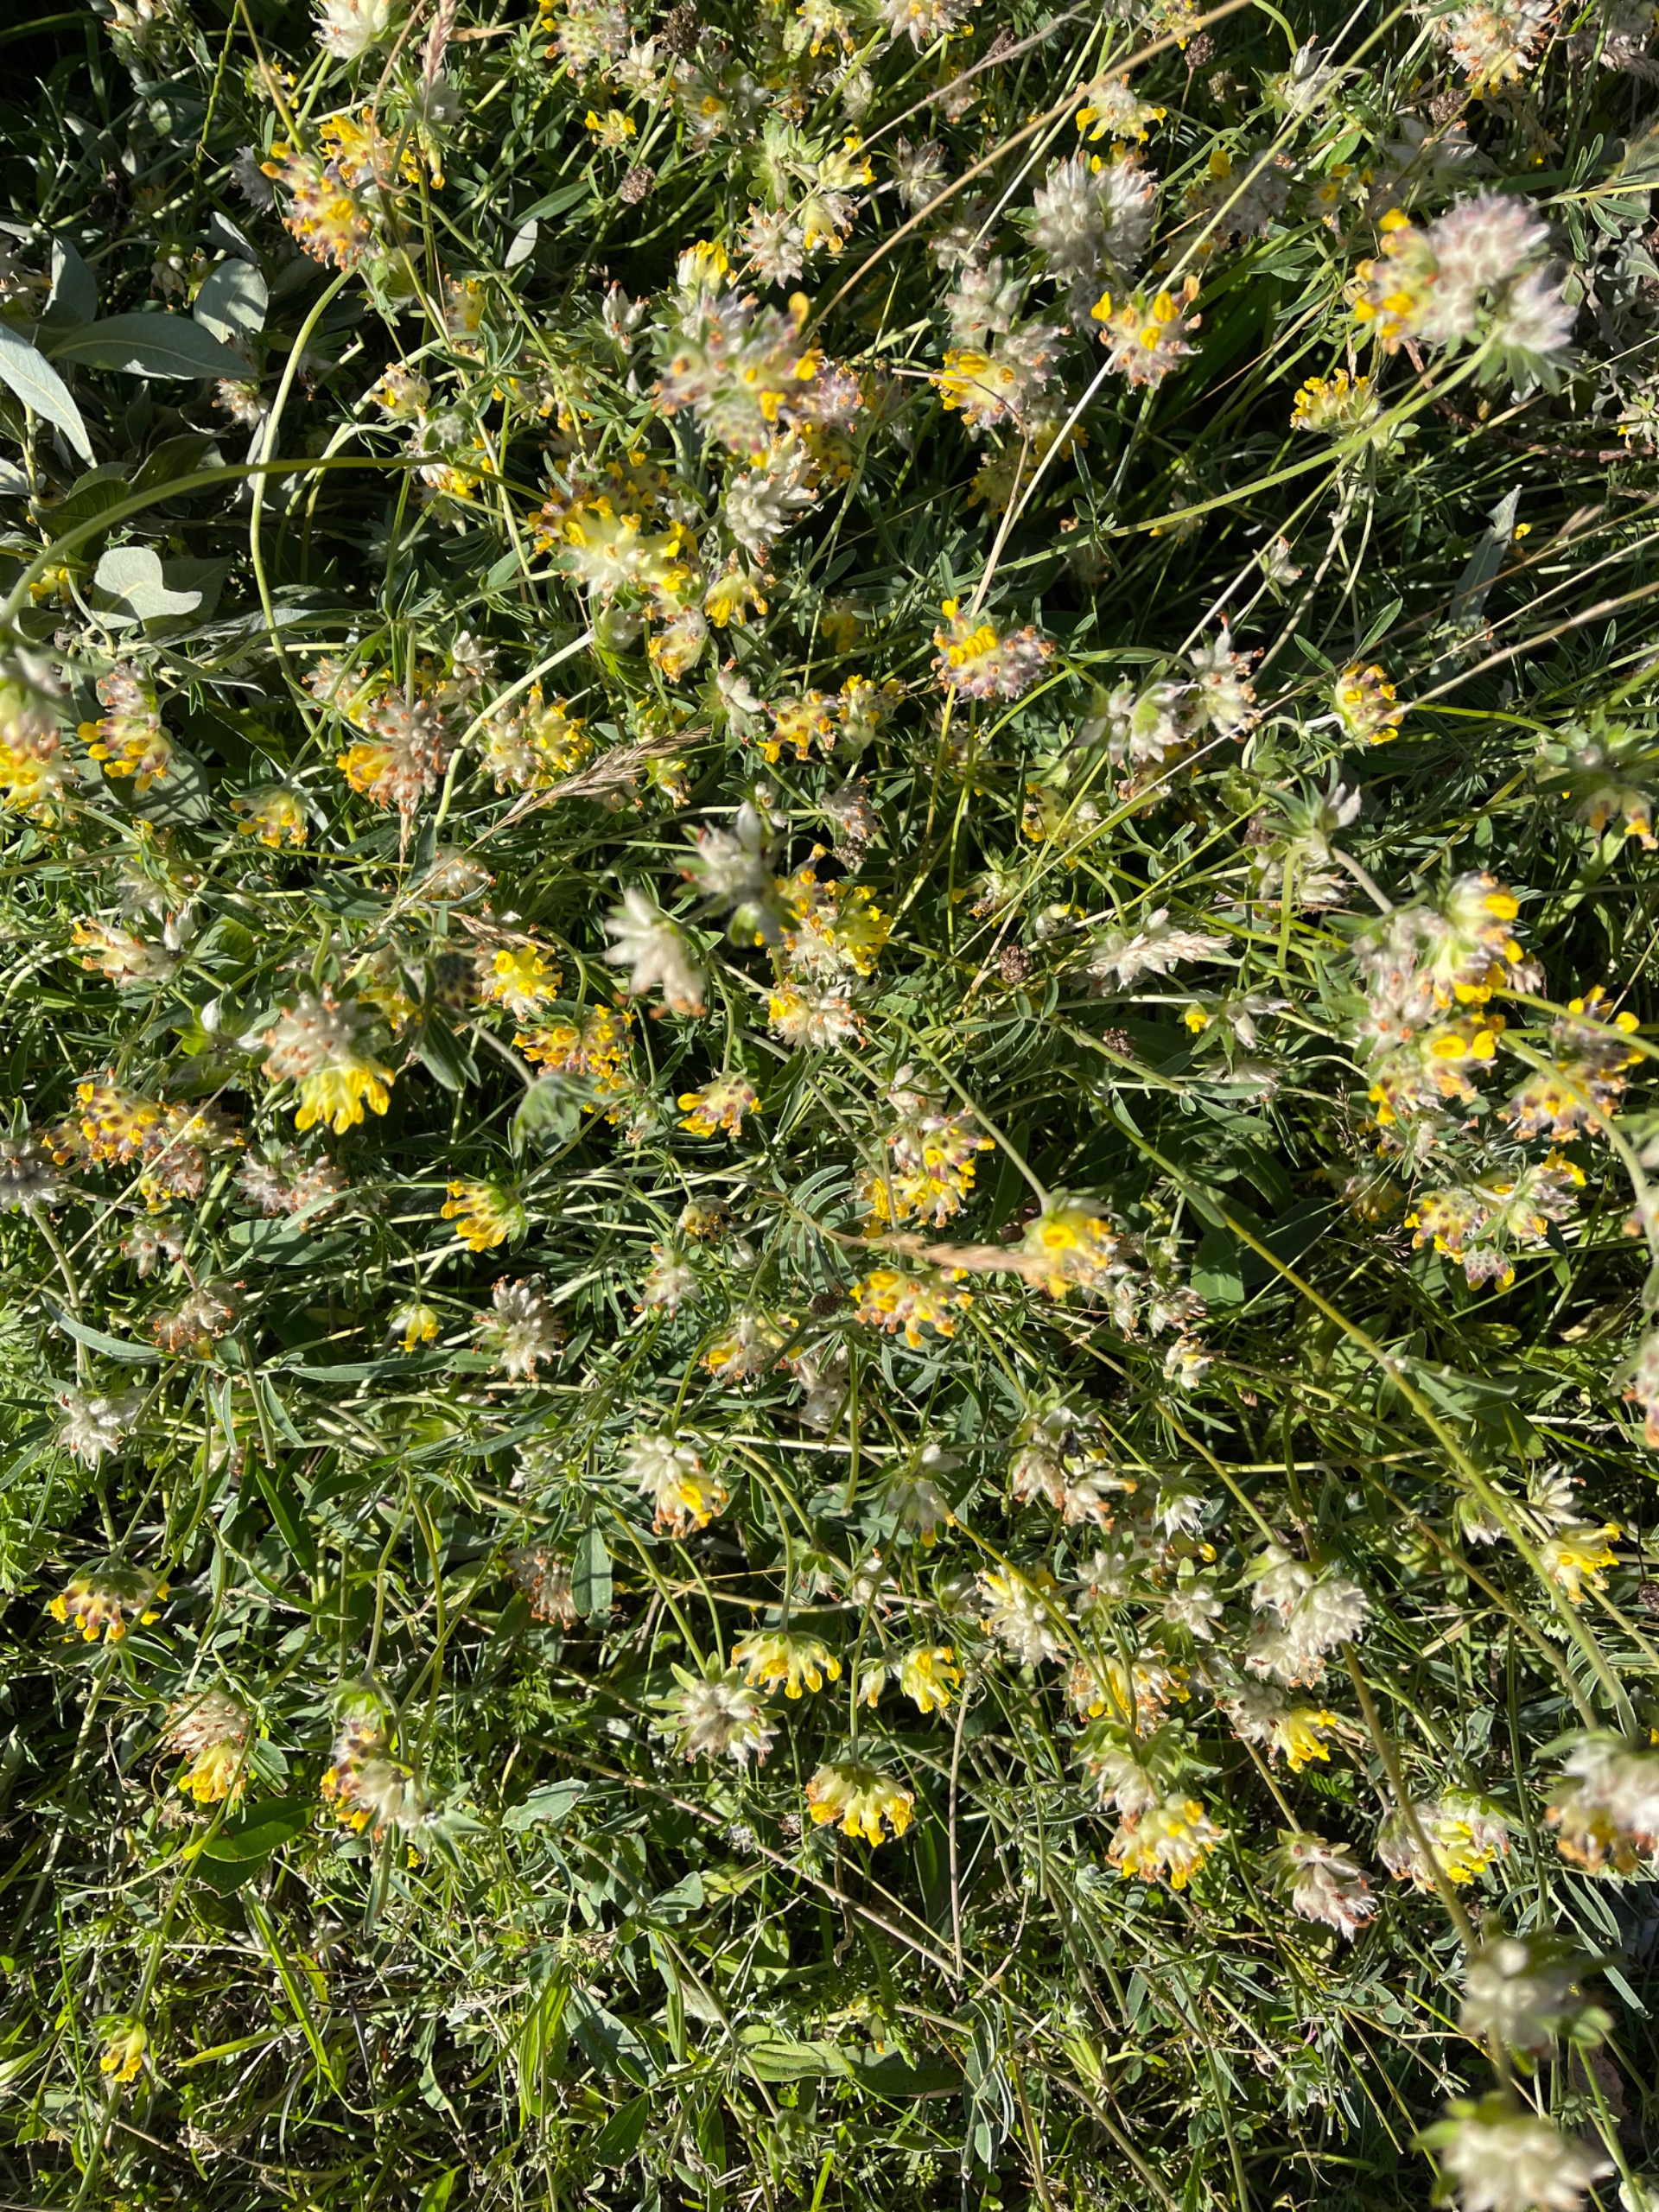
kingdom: Plantae
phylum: Tracheophyta
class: Magnoliopsida
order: Fabales
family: Fabaceae
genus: Anthyllis
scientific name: Anthyllis vulneraria
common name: Rundbælg
